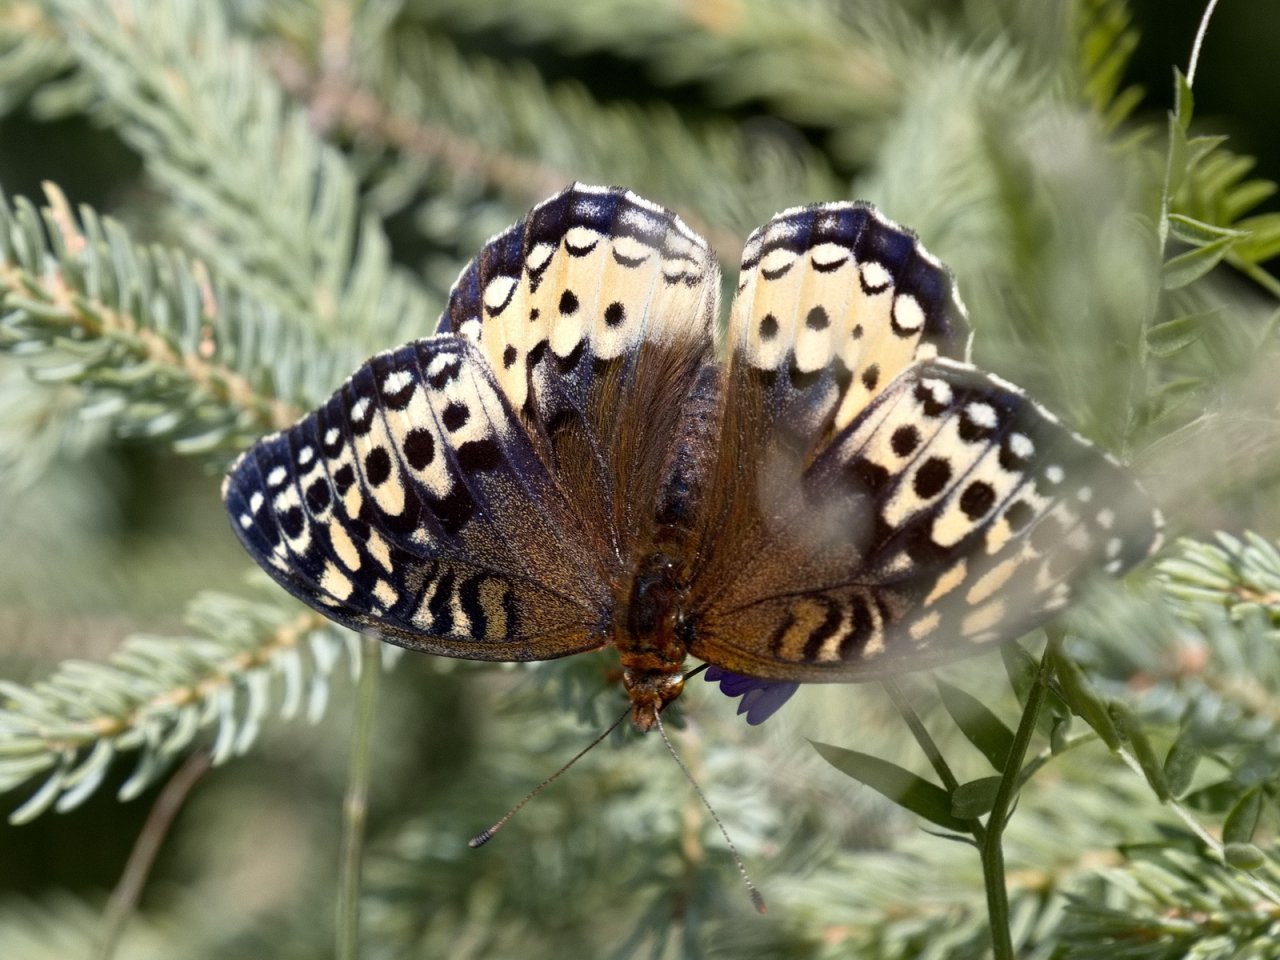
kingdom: Animalia
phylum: Arthropoda
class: Insecta
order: Lepidoptera
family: Nymphalidae
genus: Speyeria
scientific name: Speyeria cybele
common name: Great Spangled Fritillary
